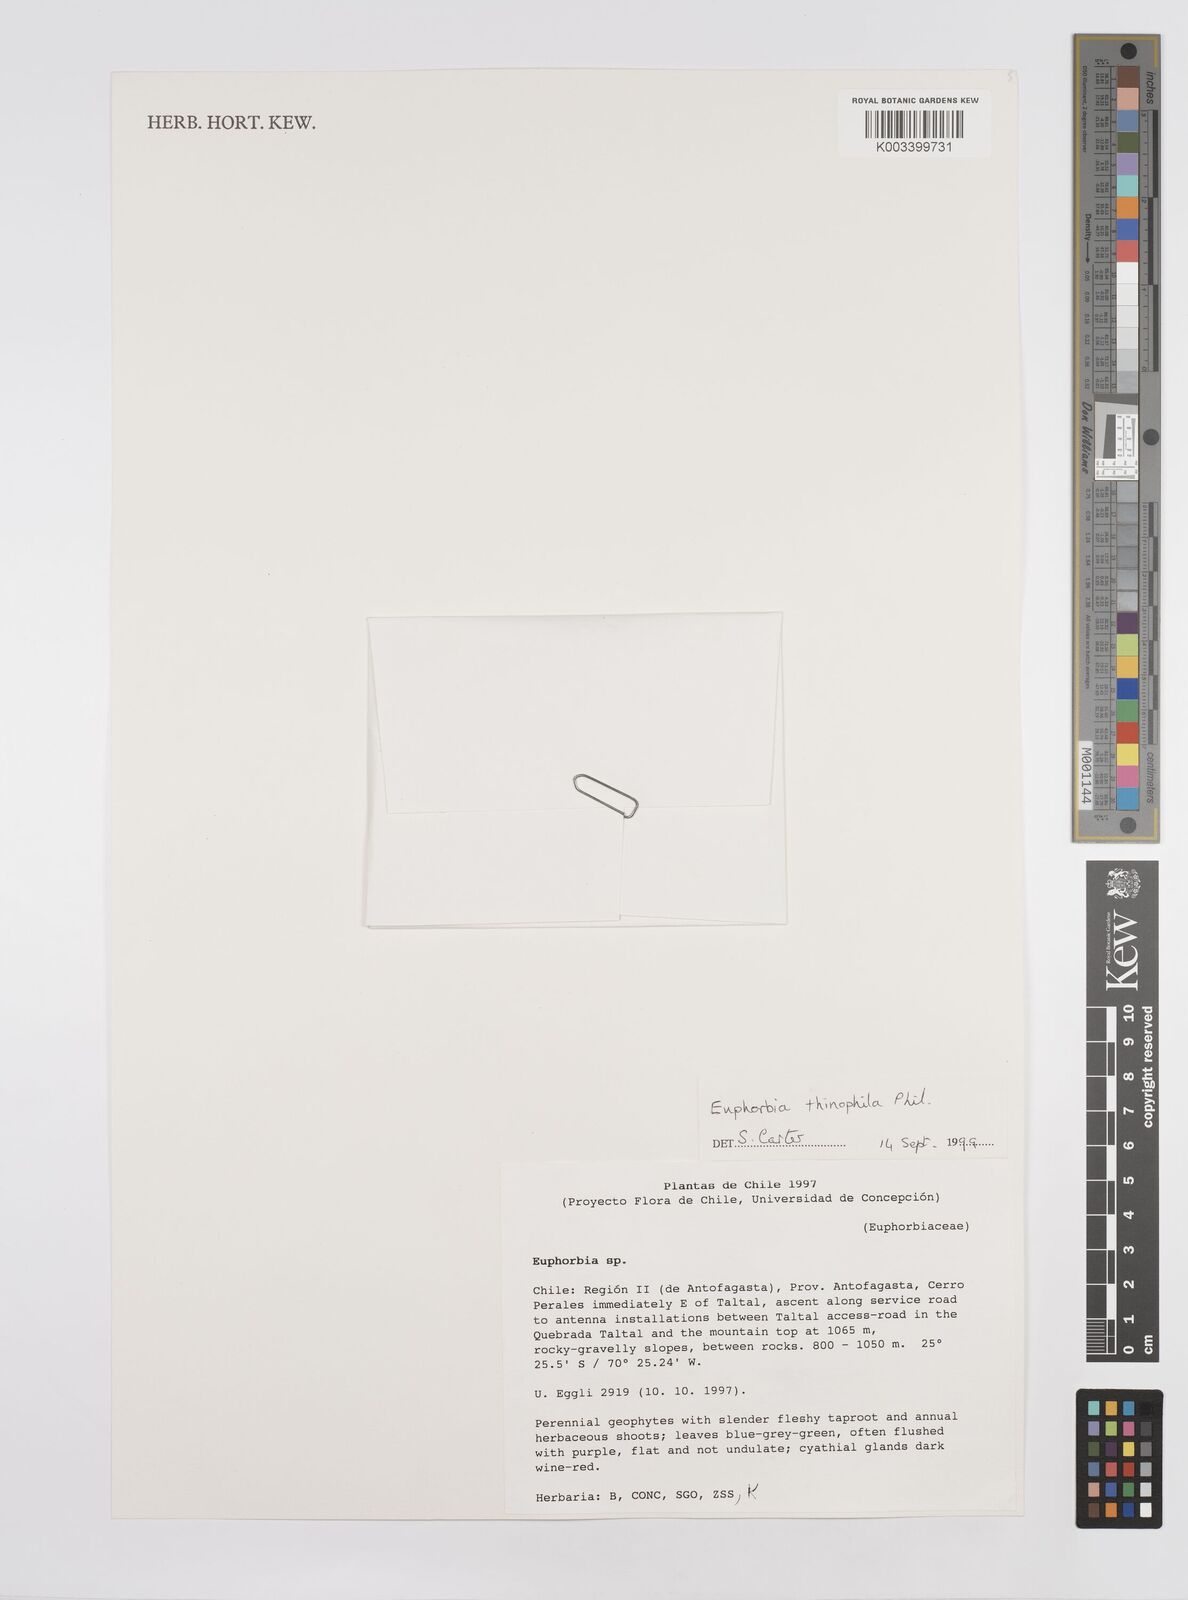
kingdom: Plantae
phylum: Tracheophyta
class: Magnoliopsida
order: Malpighiales
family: Euphorbiaceae
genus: Euphorbia
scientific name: Euphorbia thinophila
